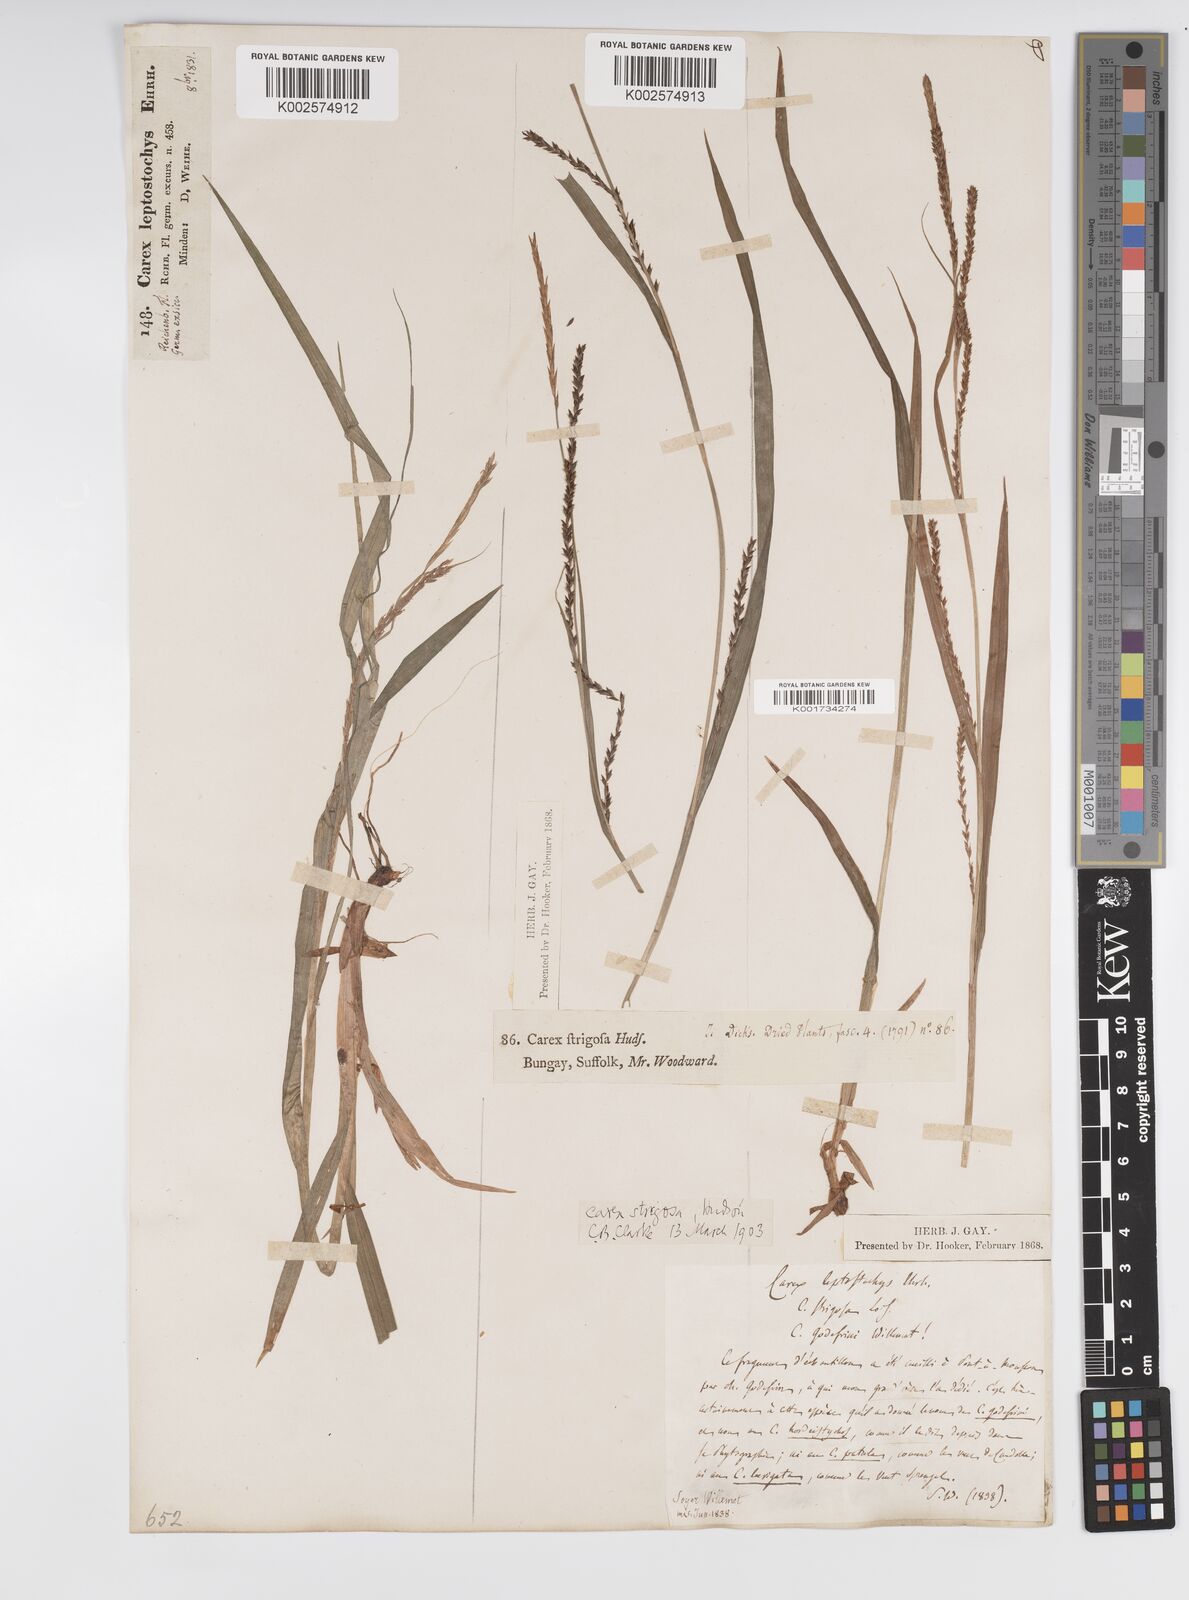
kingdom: Plantae
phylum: Tracheophyta
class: Liliopsida
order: Poales
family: Cyperaceae
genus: Carex
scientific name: Carex strigosa
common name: Thin-spiked wood-sedge
